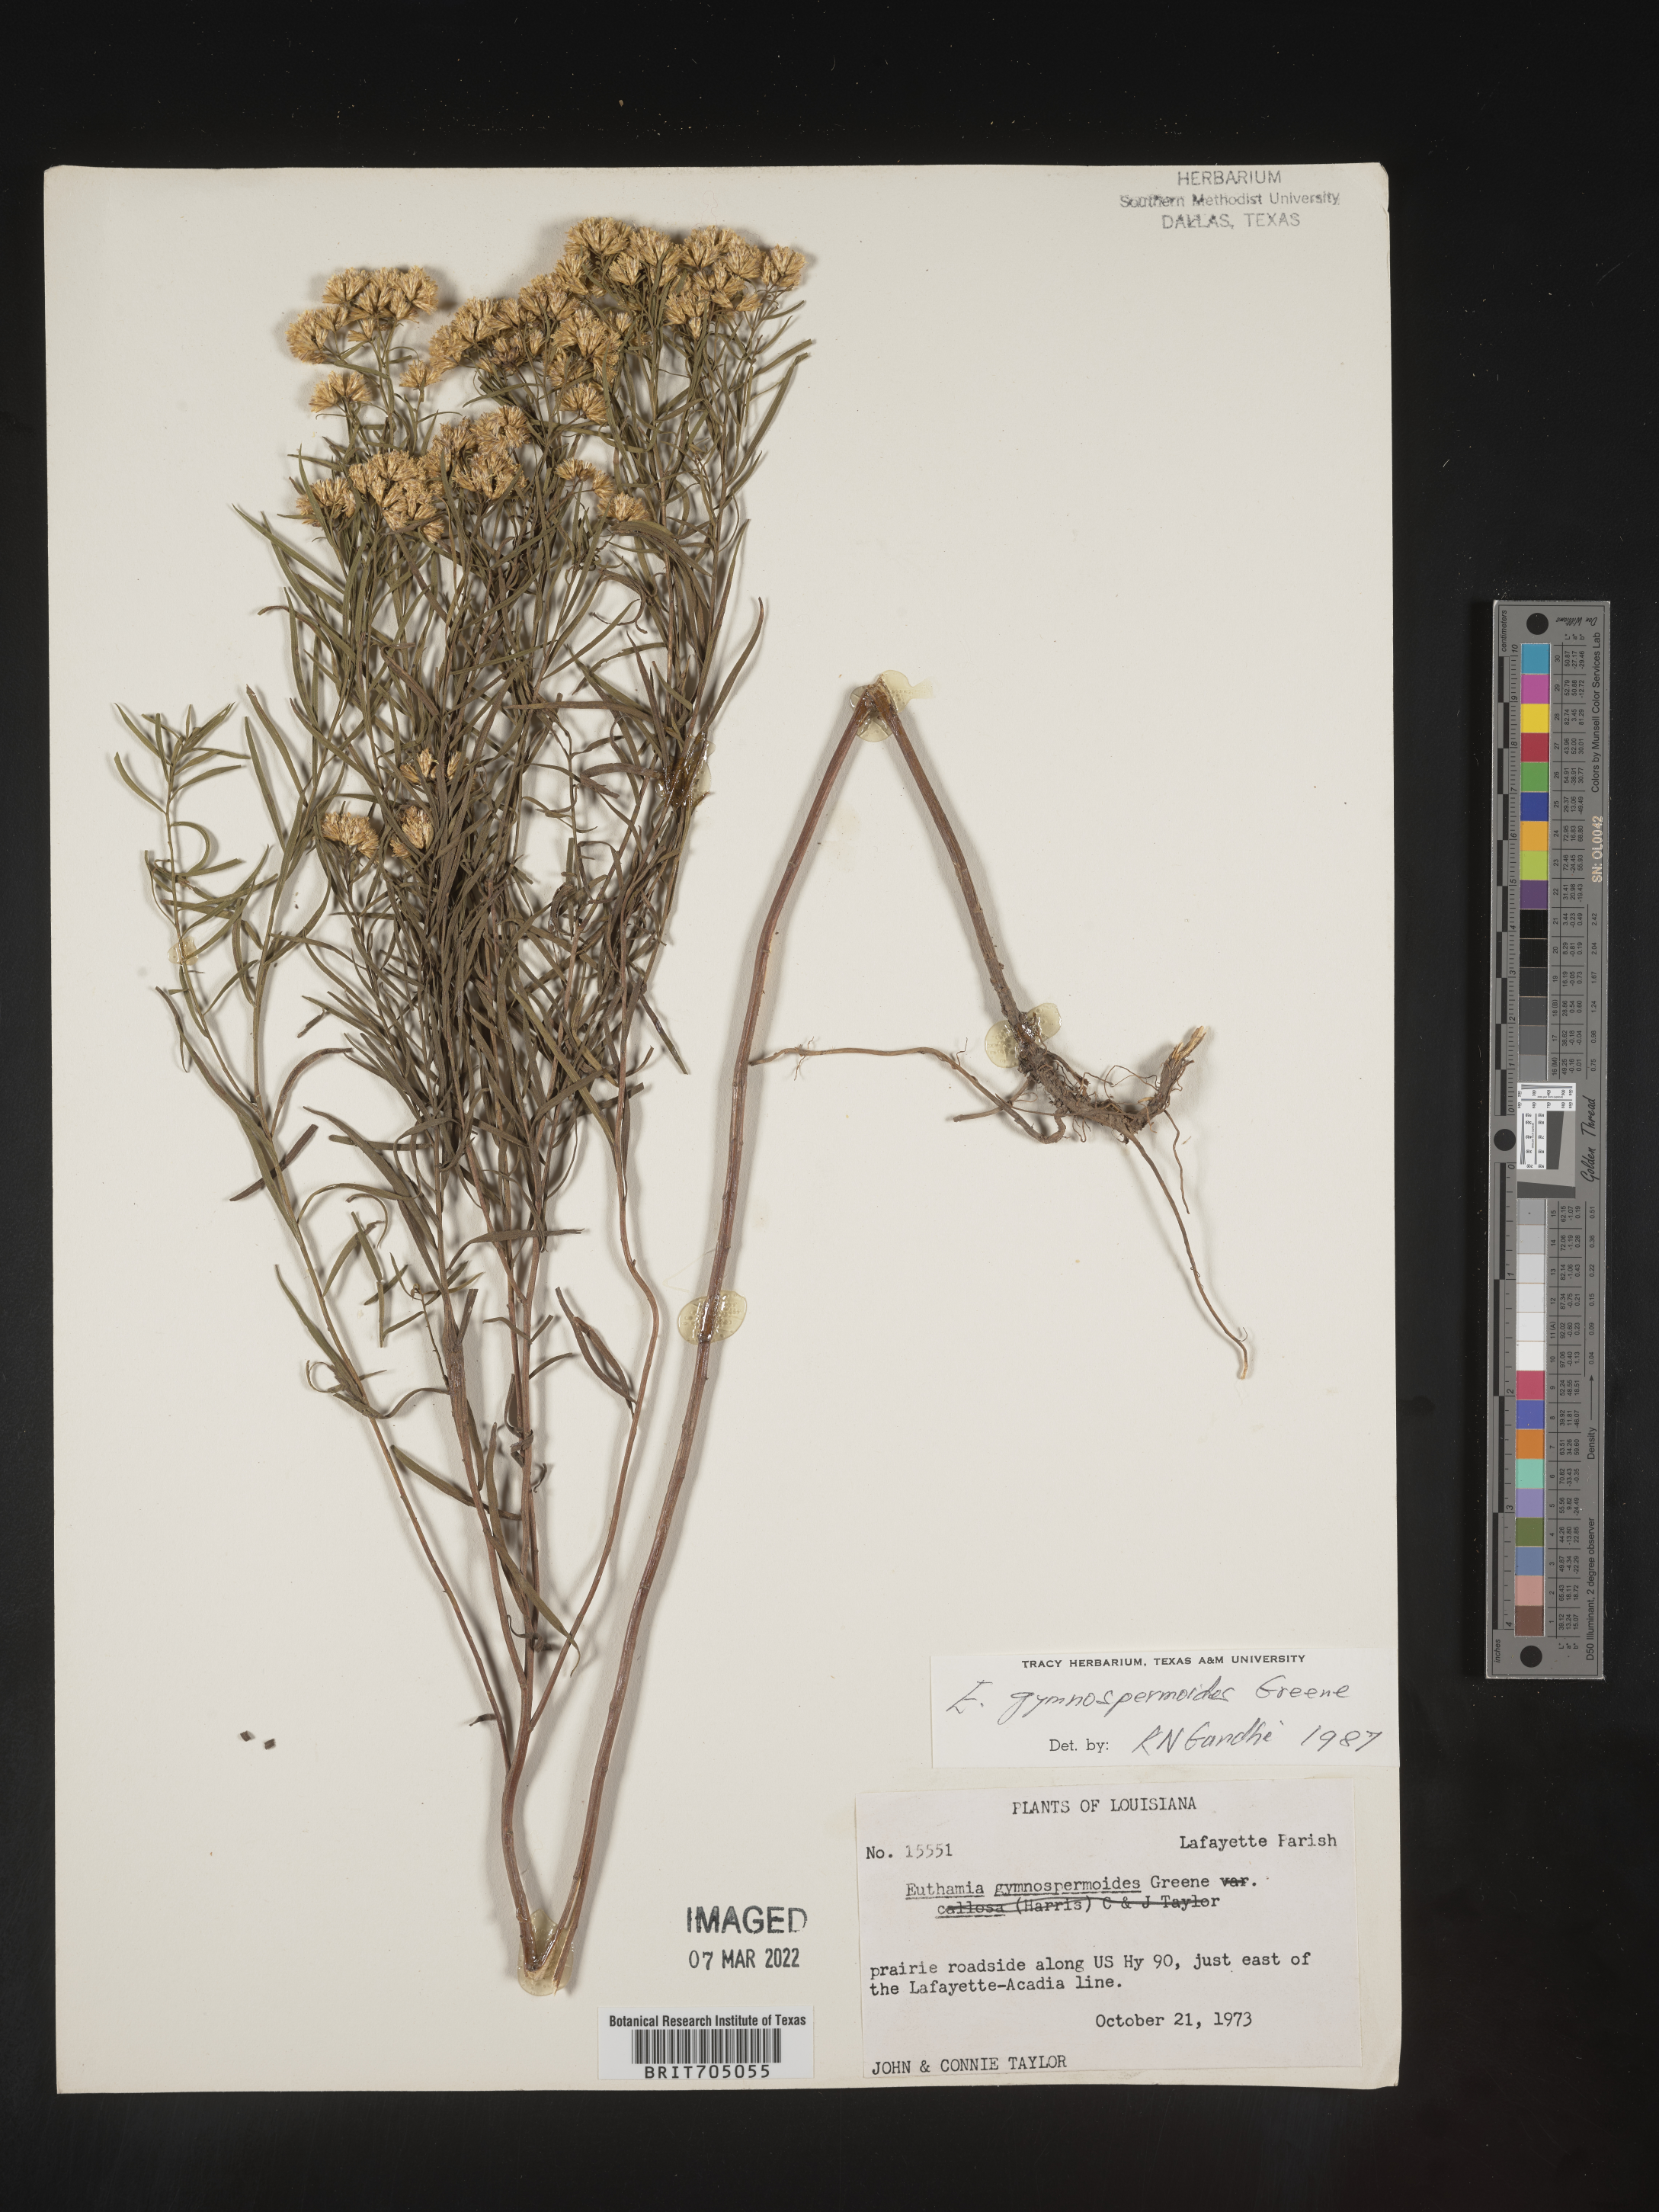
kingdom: Plantae
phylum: Tracheophyta
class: Magnoliopsida
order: Asterales
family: Asteraceae
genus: Euthamia
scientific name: Euthamia gymnospermoides
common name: Great plains goldentop
